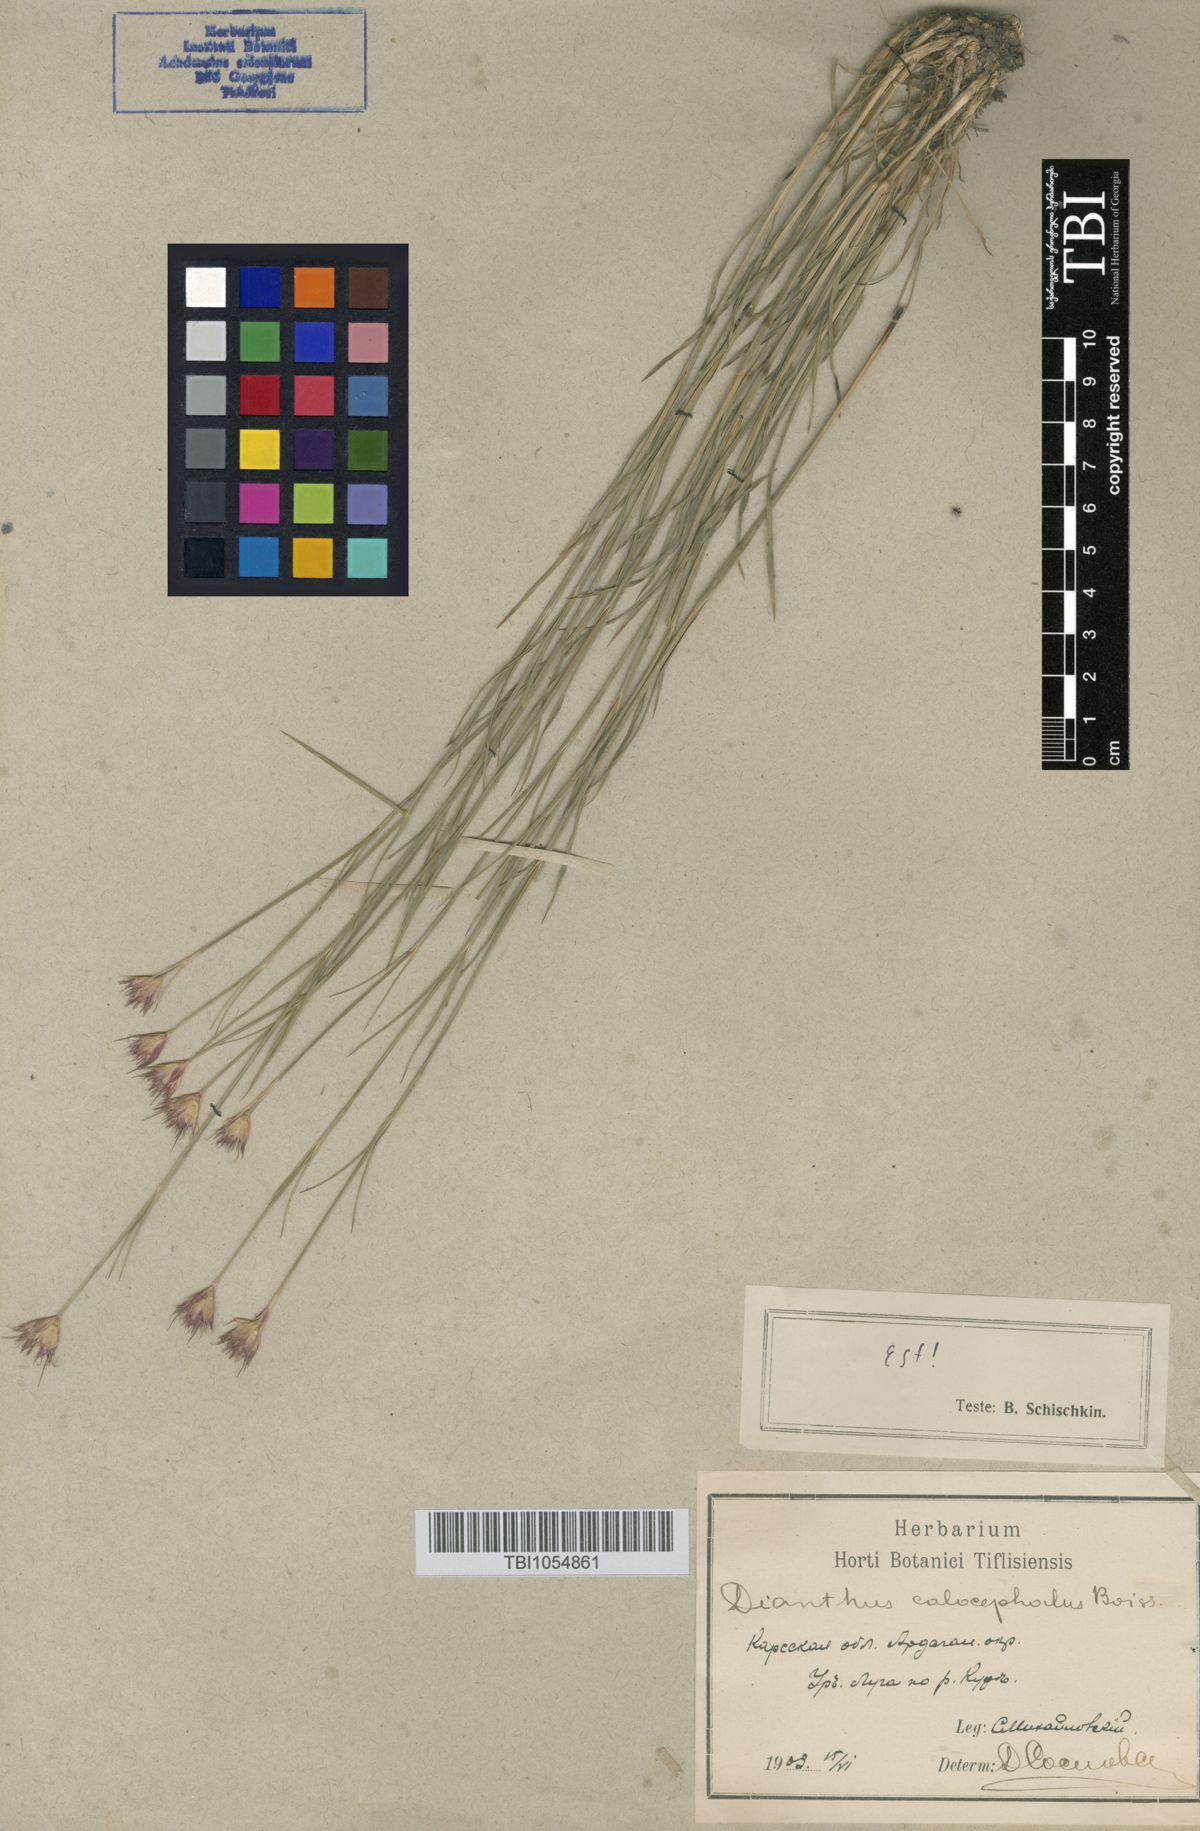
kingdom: Plantae
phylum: Tracheophyta
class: Magnoliopsida
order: Caryophyllales
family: Caryophyllaceae
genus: Dianthus
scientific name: Dianthus cruentus
